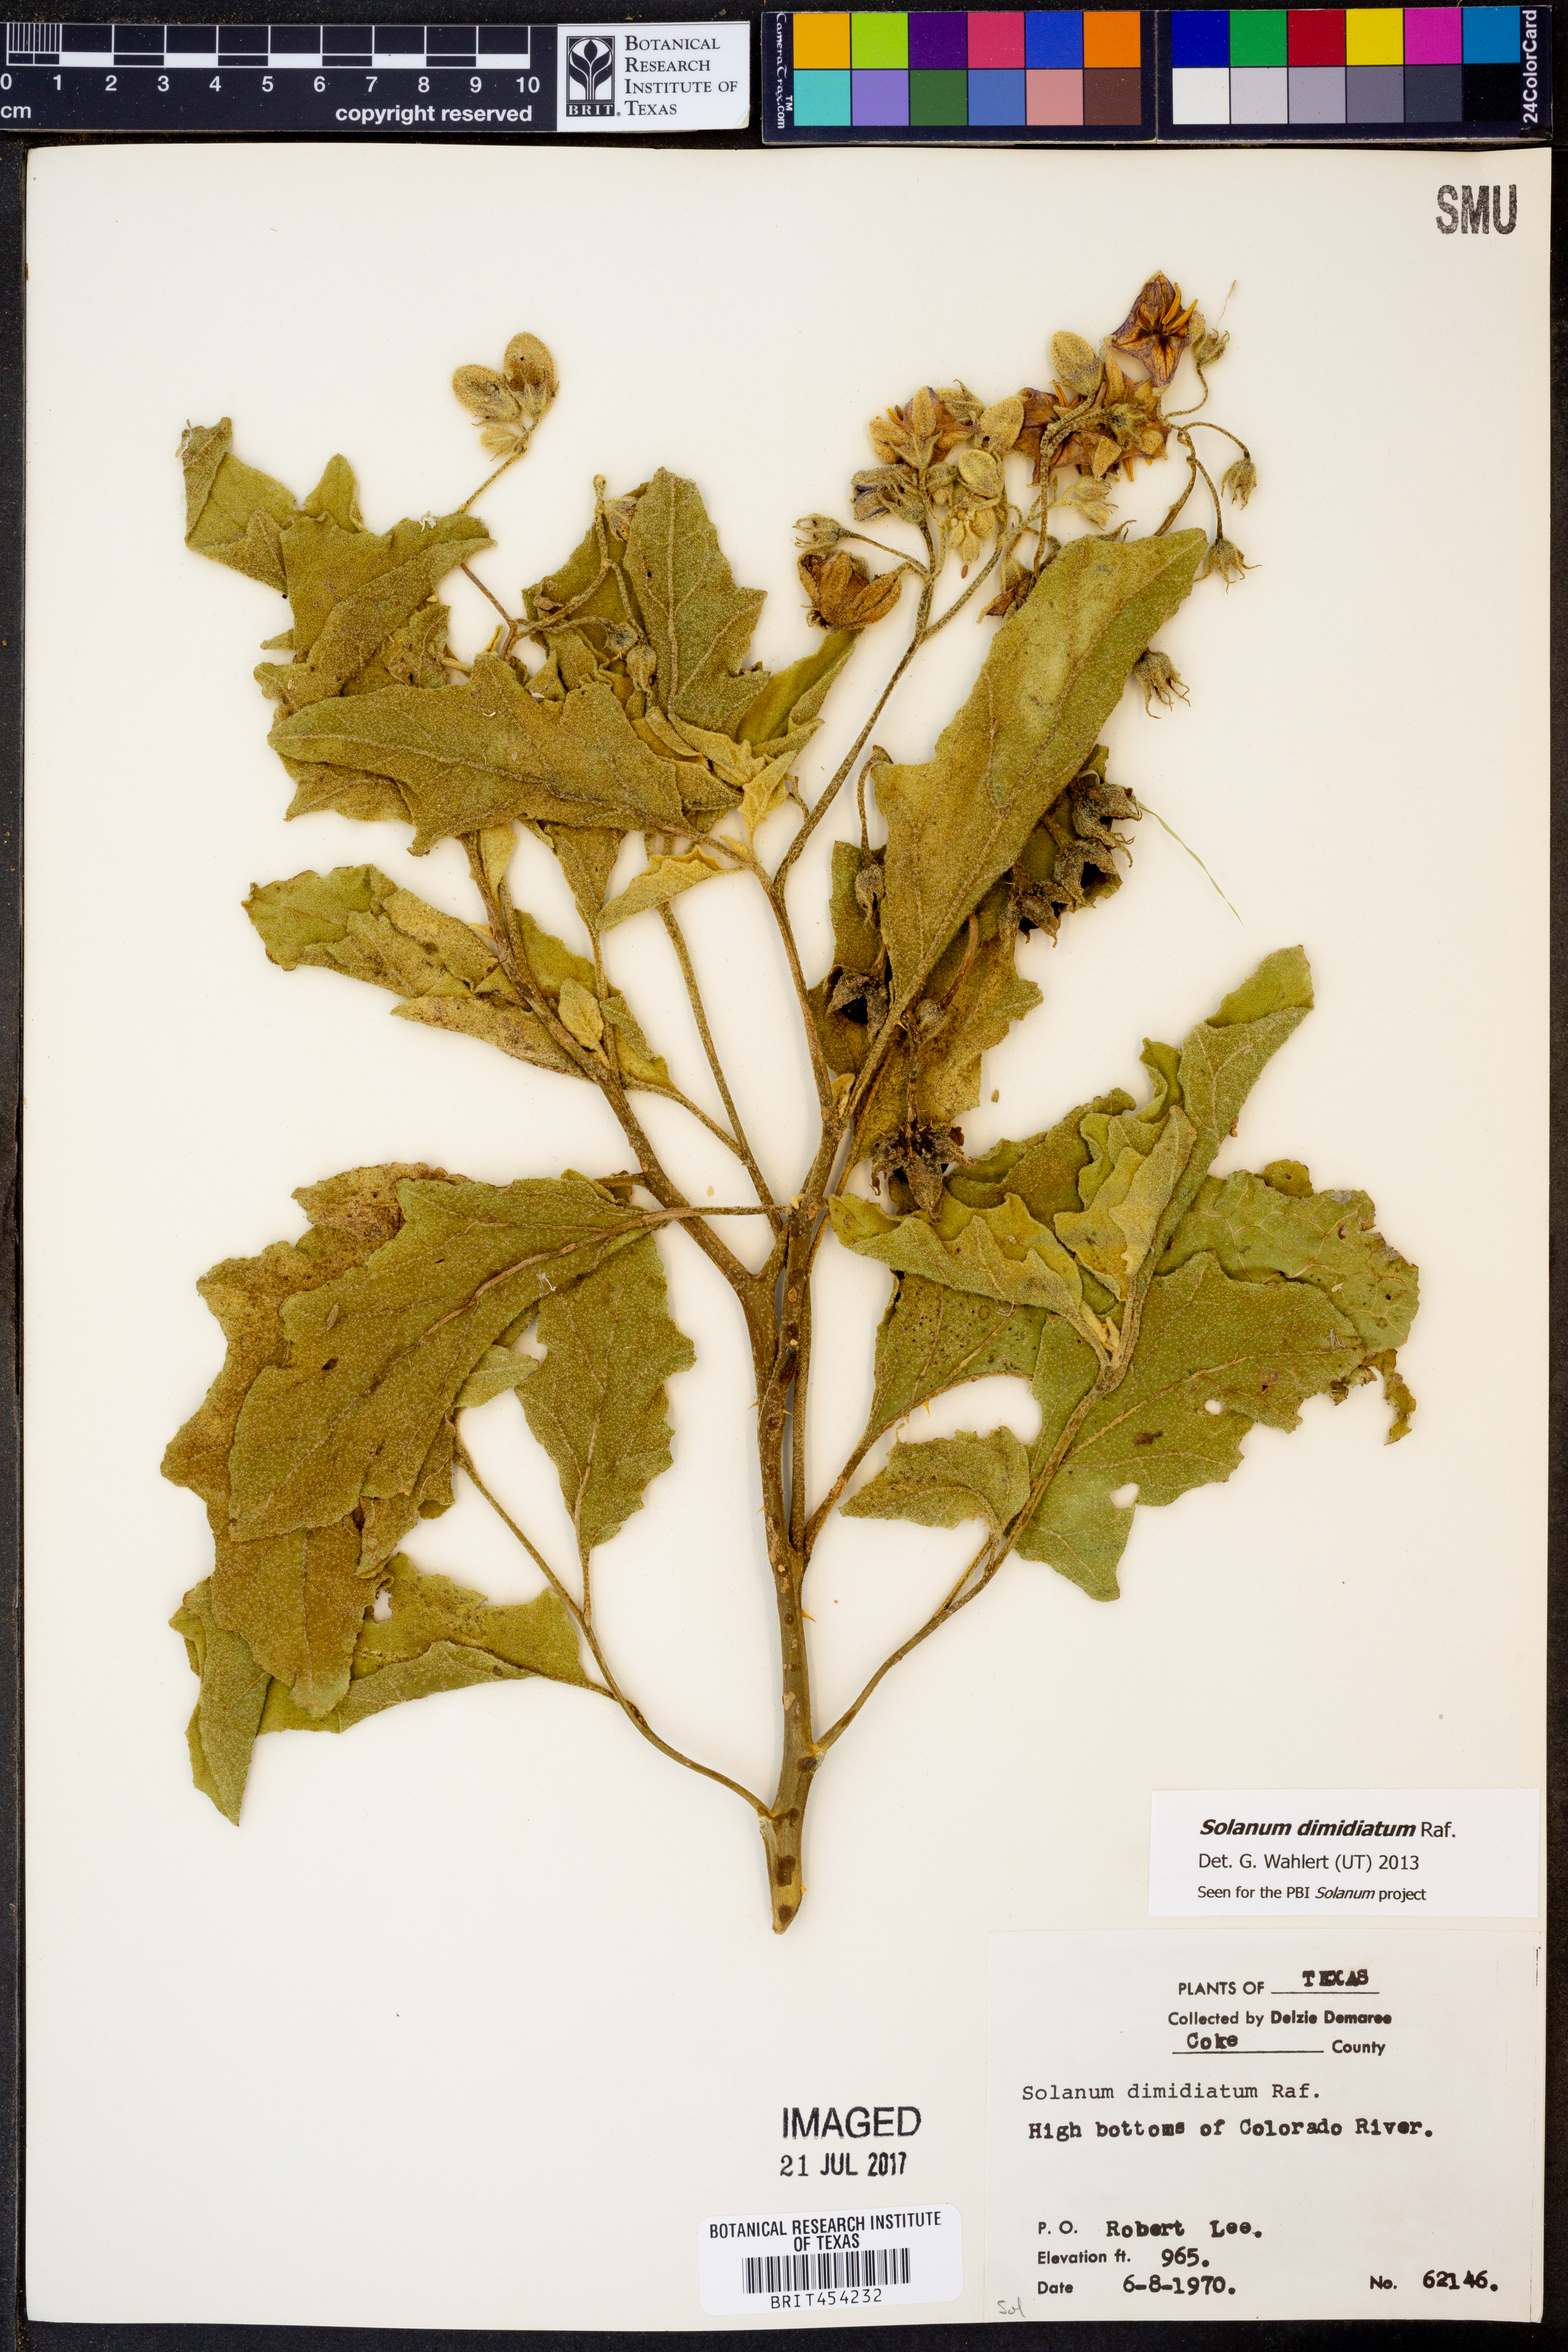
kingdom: Plantae
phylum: Tracheophyta
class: Magnoliopsida
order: Solanales
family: Solanaceae
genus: Solanum
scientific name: Solanum dimidiatum
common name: Carolina horse-nettle
